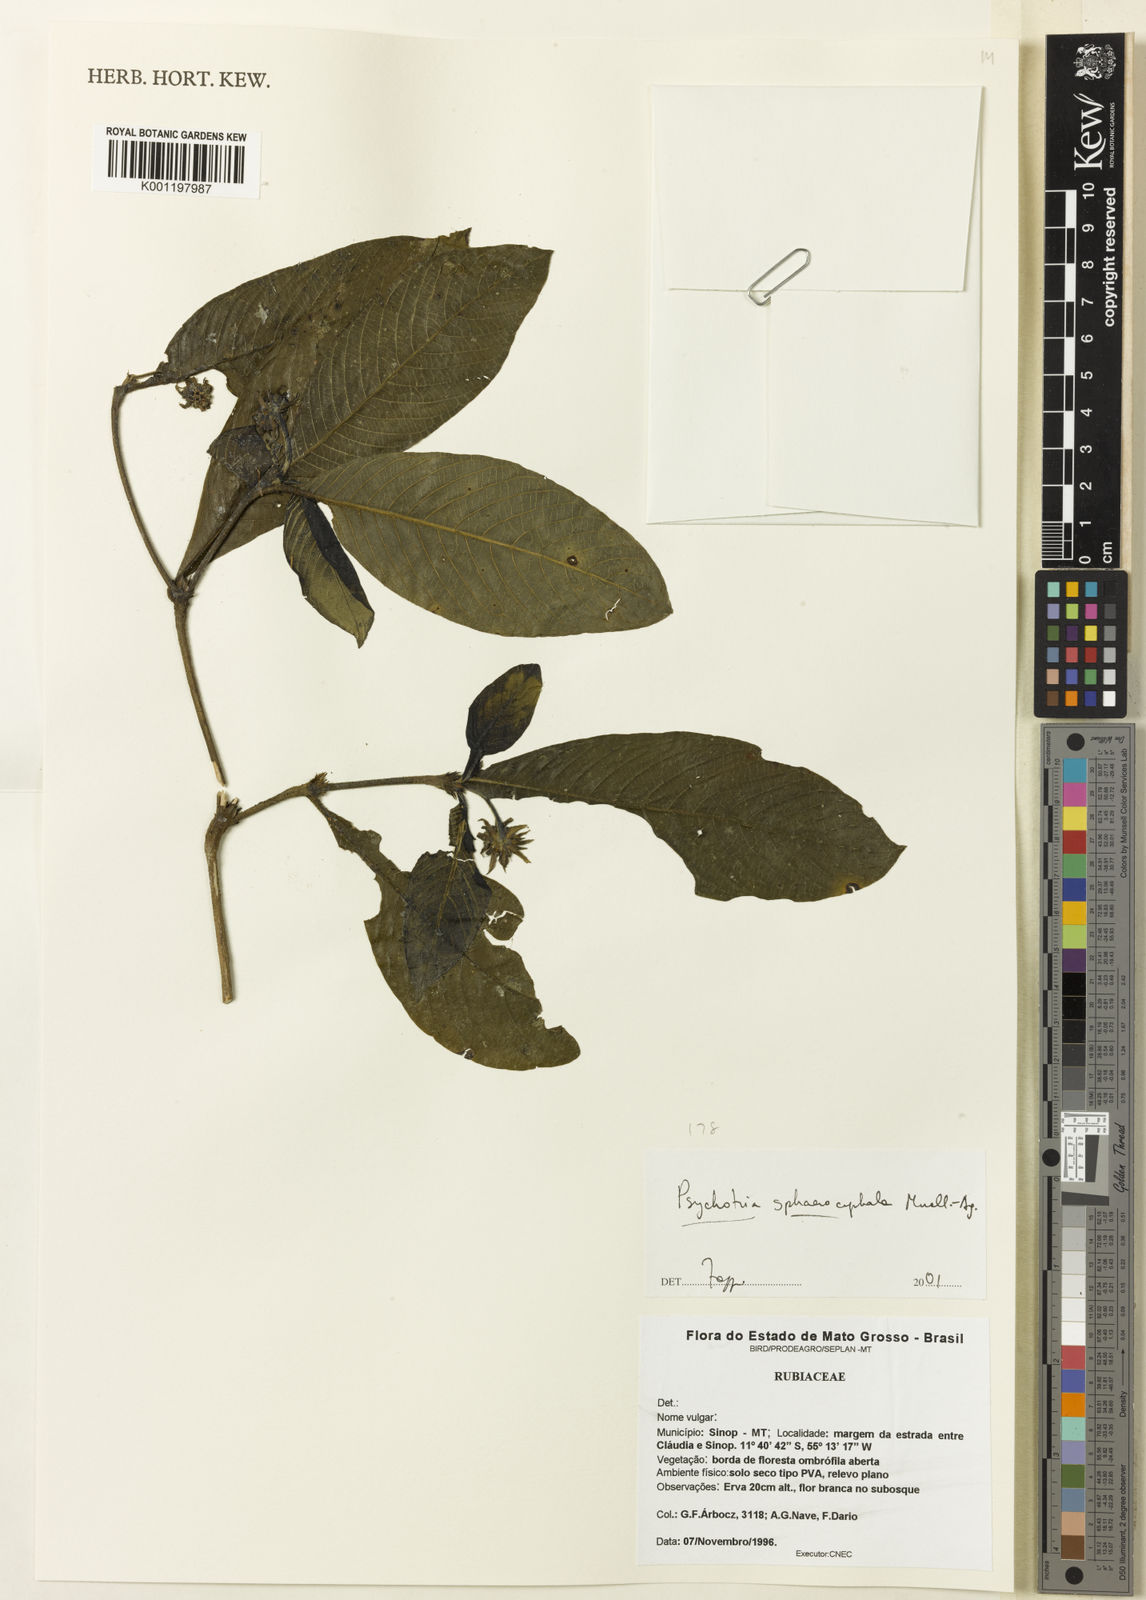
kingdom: Plantae
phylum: Tracheophyta
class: Magnoliopsida
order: Gentianales
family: Rubiaceae
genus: Psychotria
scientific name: Psychotria
